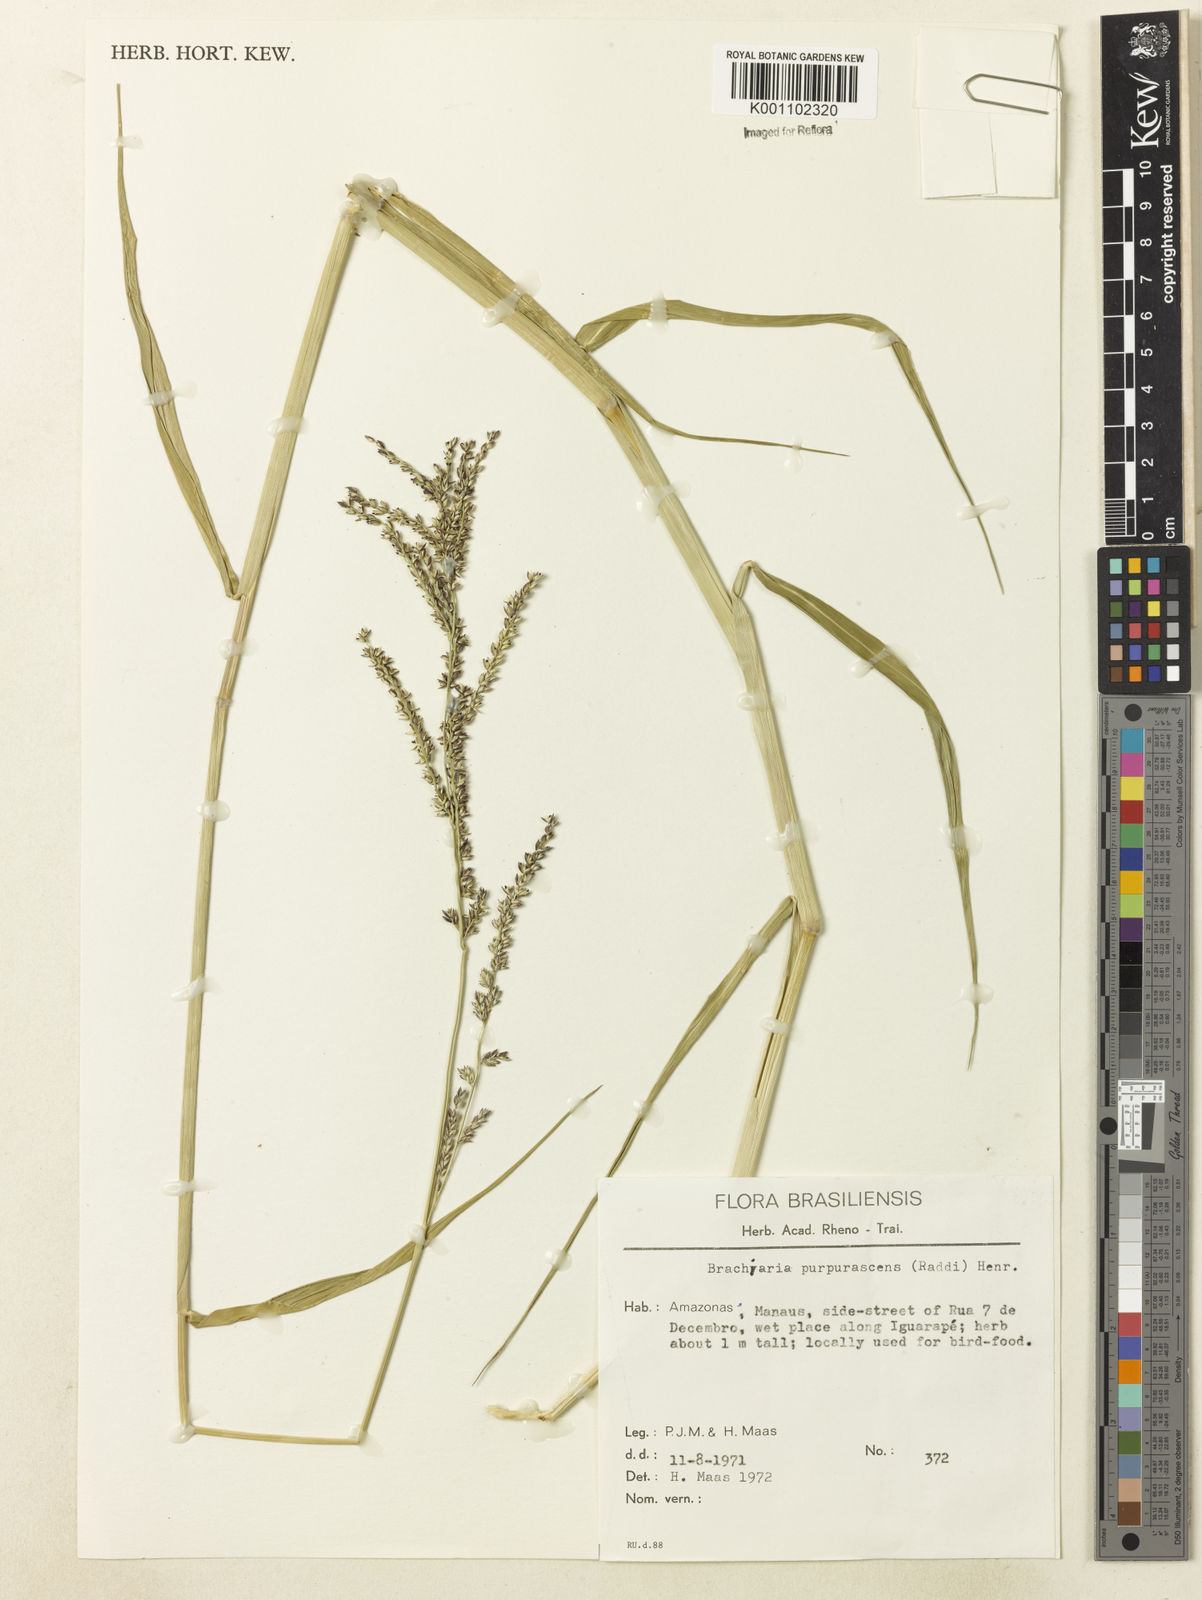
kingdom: Plantae
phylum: Tracheophyta
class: Liliopsida
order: Poales
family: Poaceae
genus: Urochloa
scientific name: Urochloa mutica
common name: Para grass
